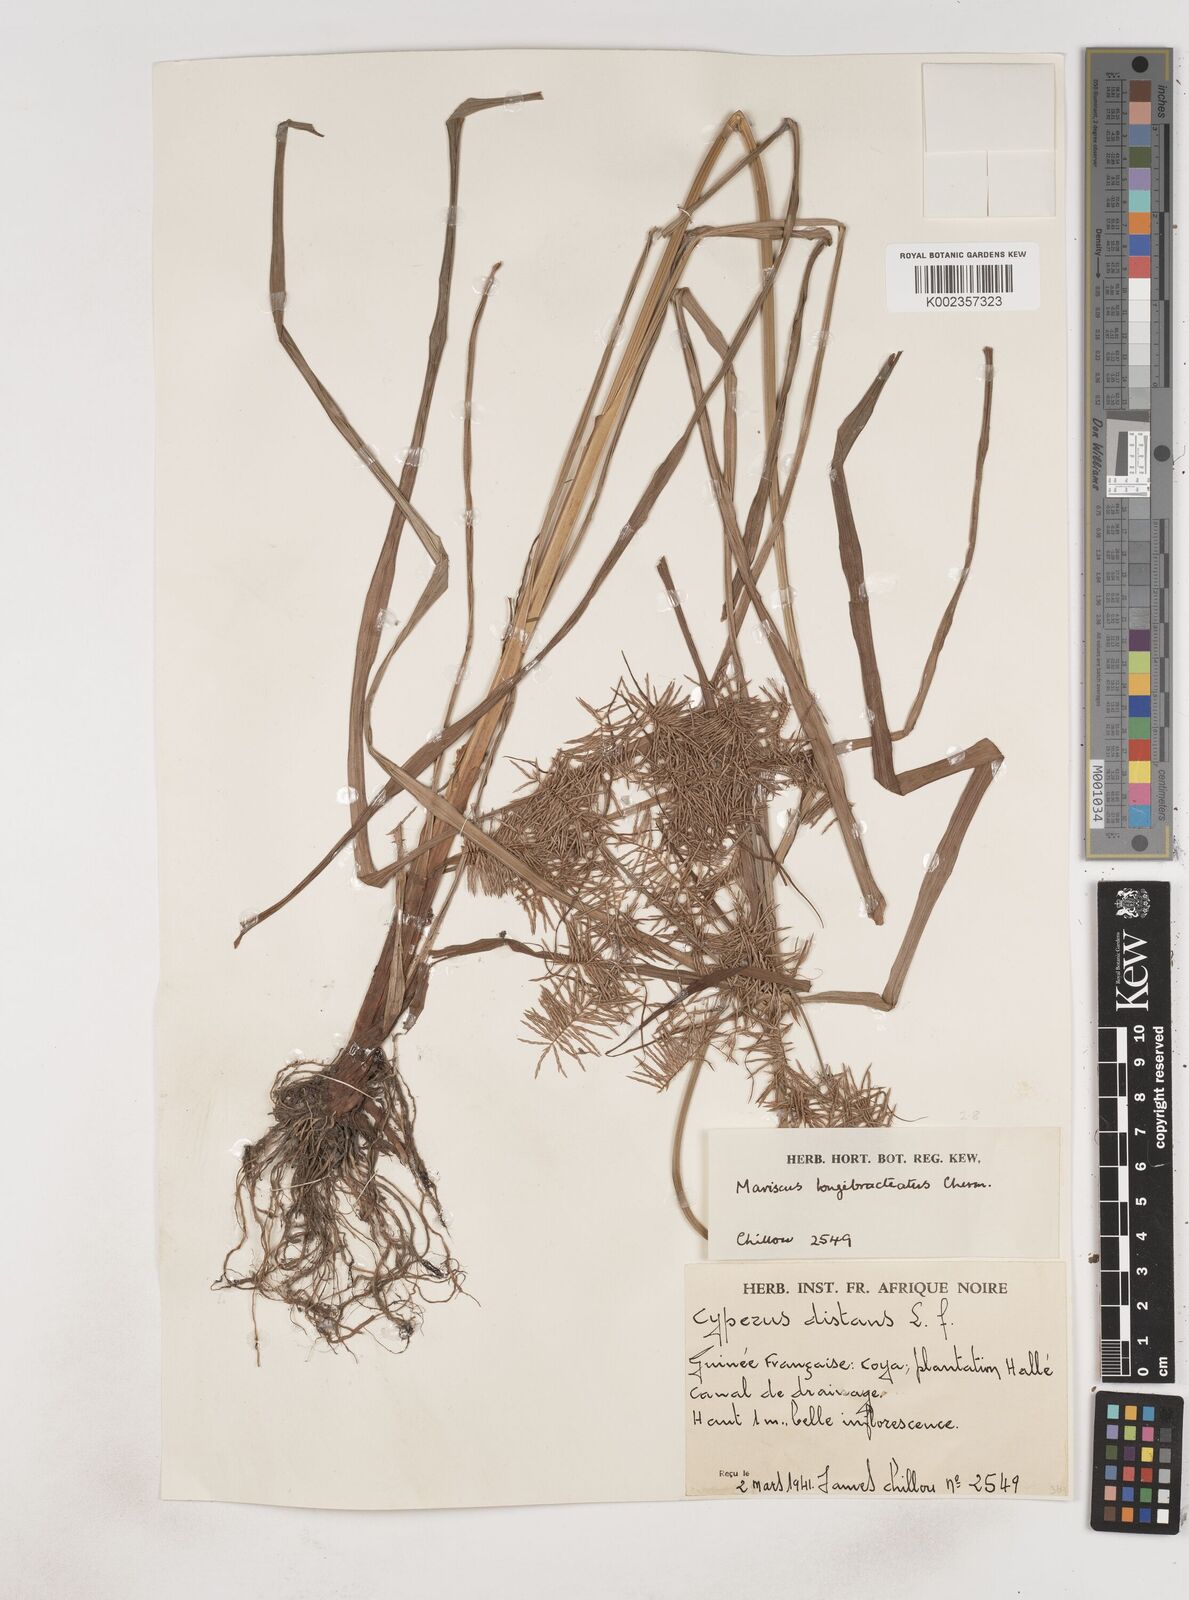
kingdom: Plantae
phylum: Tracheophyta
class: Liliopsida
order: Poales
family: Cyperaceae
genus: Cyperus
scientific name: Cyperus distans
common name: Slender cyperus
